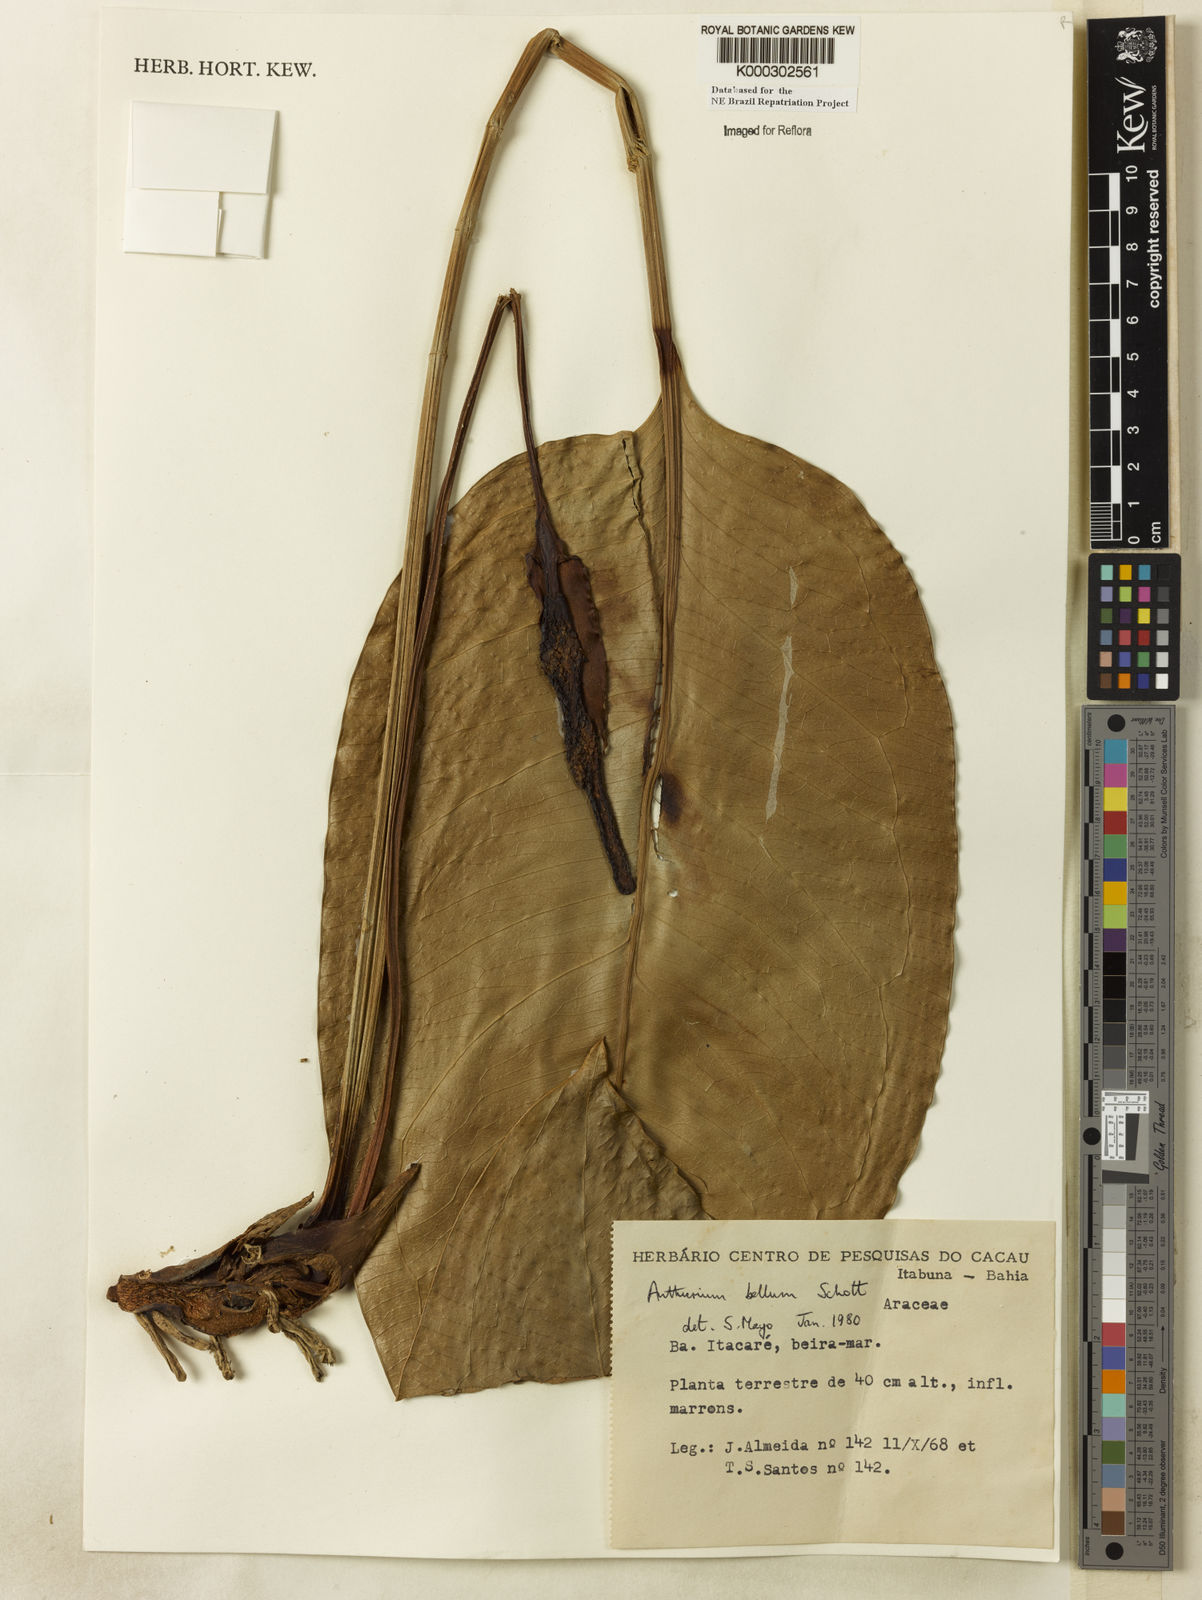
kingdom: Plantae
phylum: Tracheophyta
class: Liliopsida
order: Alismatales
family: Araceae
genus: Anthurium
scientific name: Anthurium bellum
